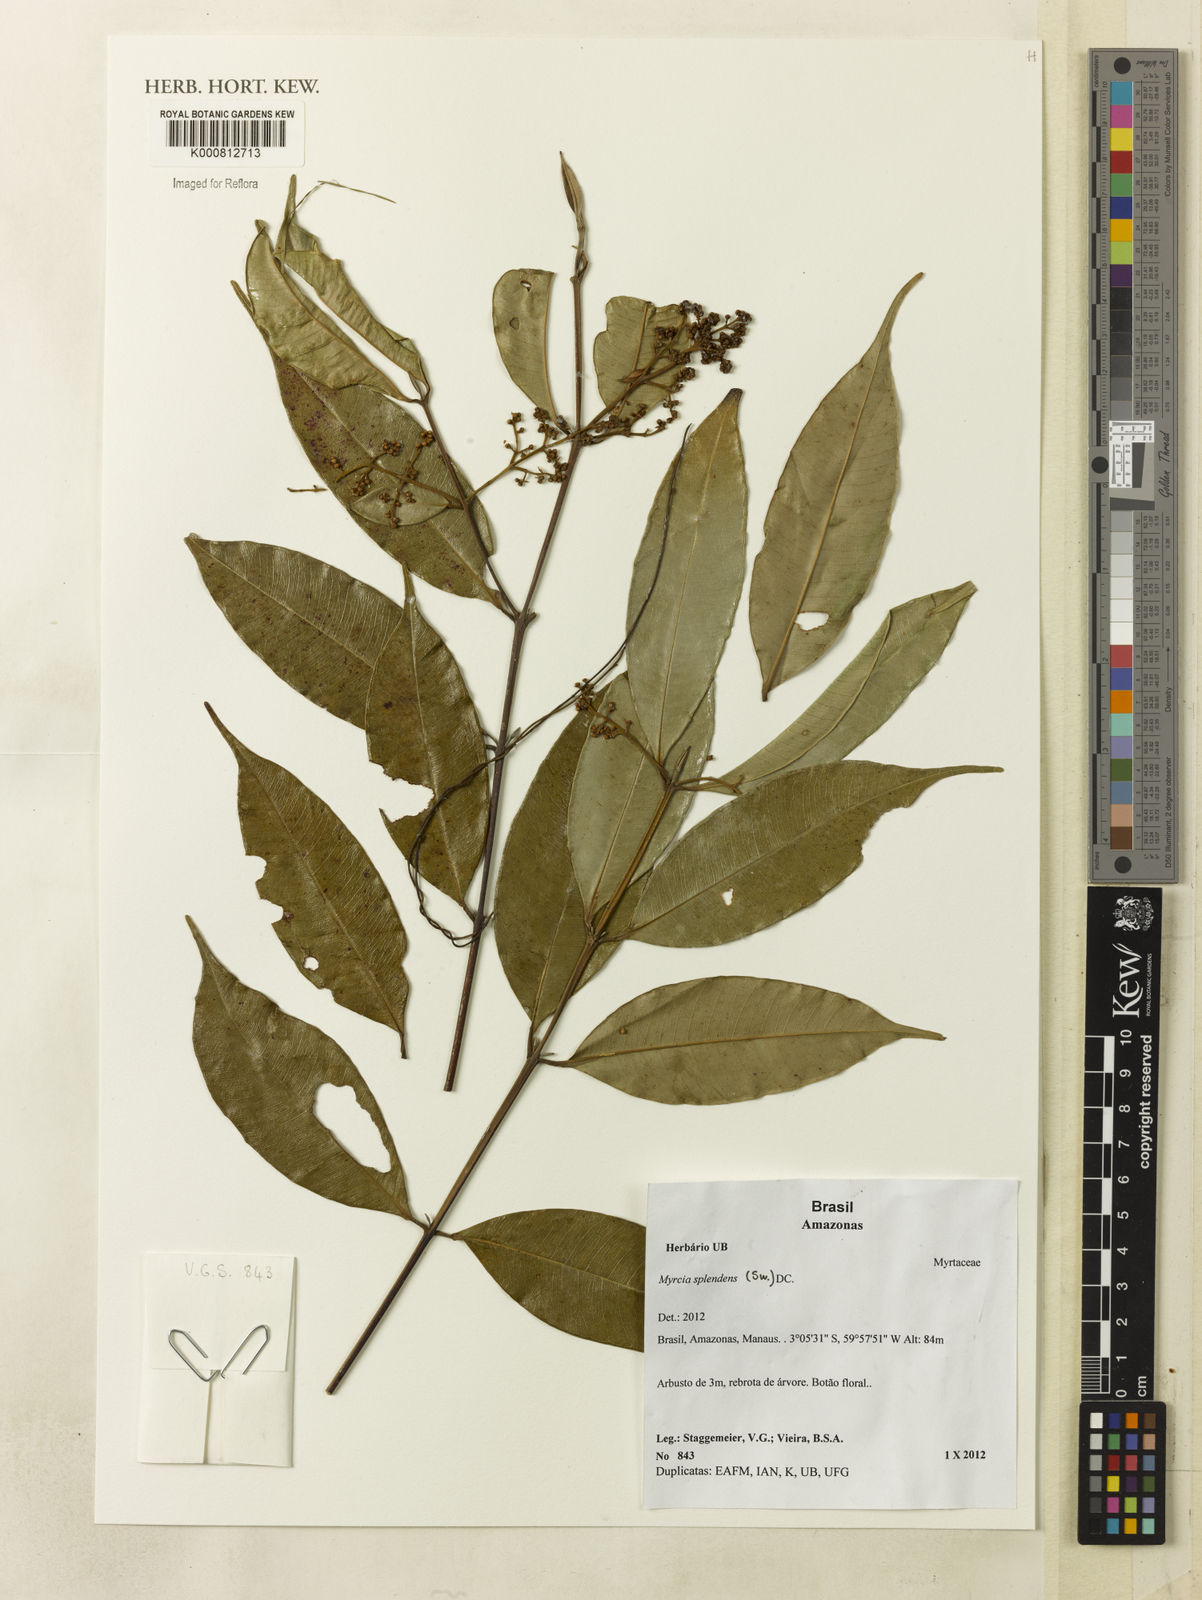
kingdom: Plantae
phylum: Tracheophyta
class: Magnoliopsida
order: Myrtales
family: Myrtaceae
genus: Myrcia
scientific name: Myrcia splendens
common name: Surinam cherry
